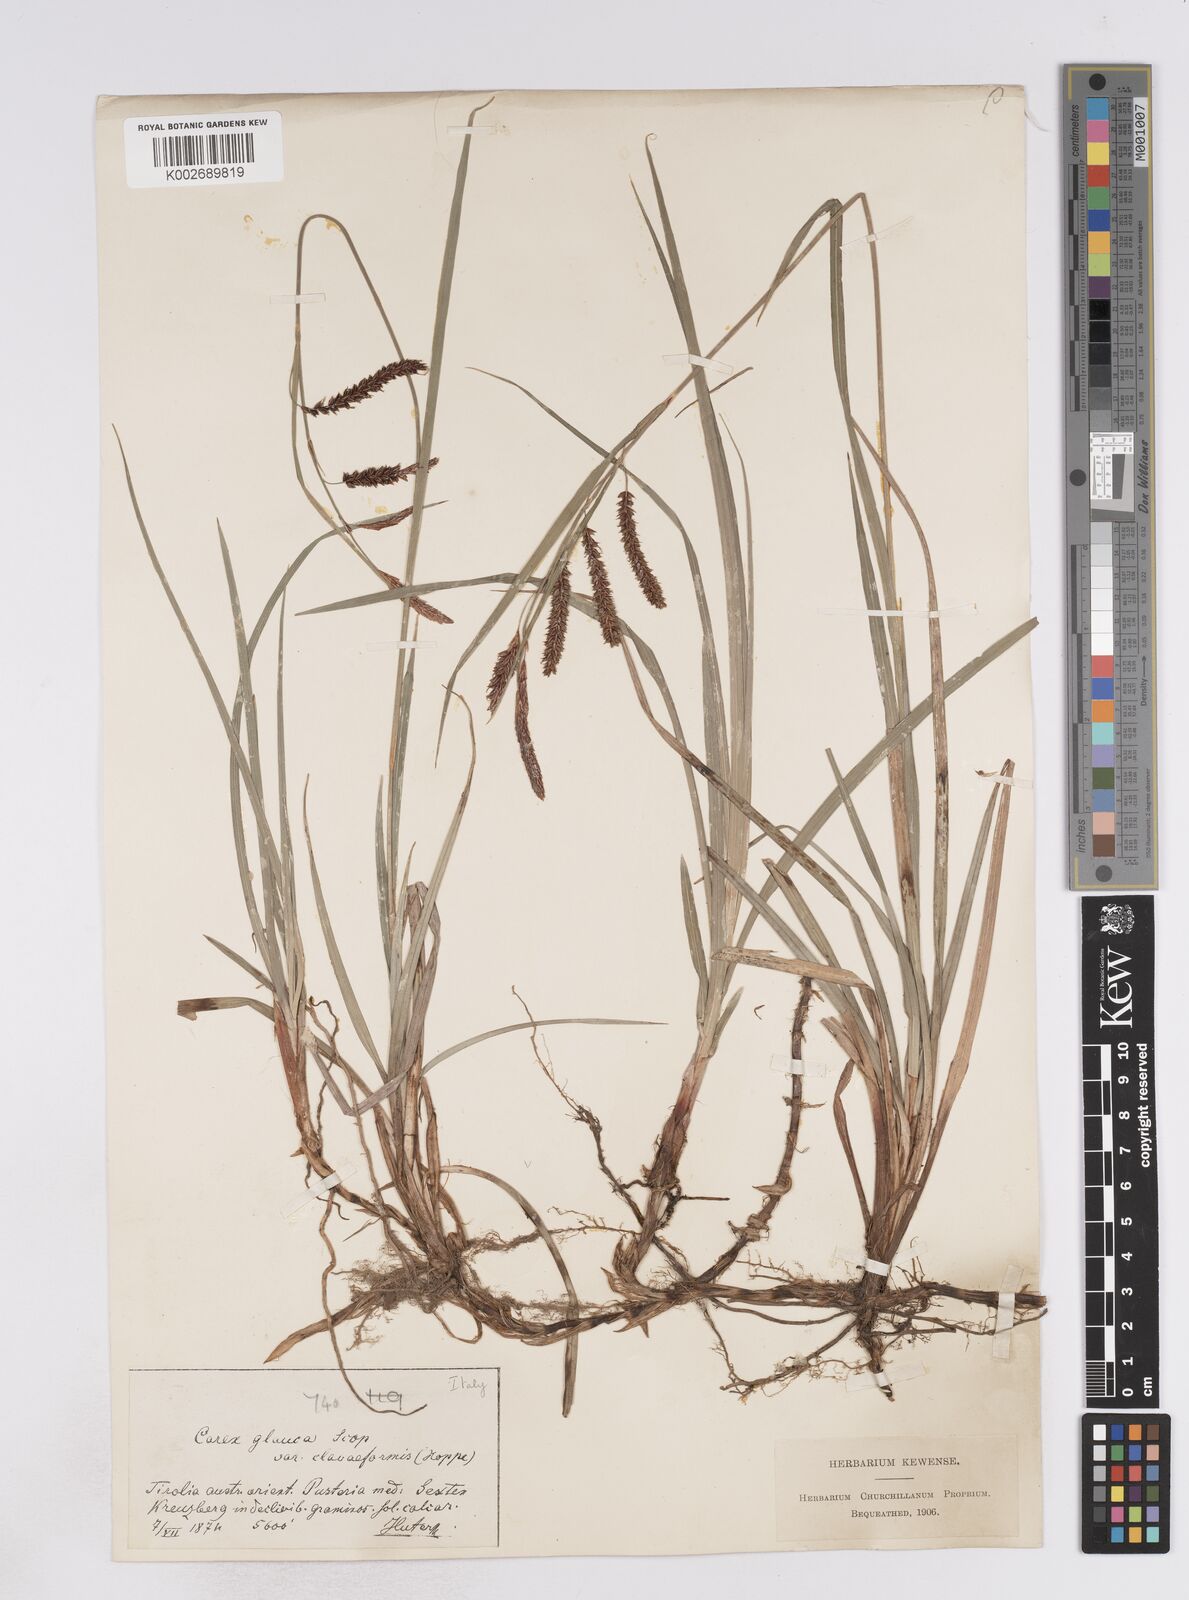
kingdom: Plantae
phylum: Tracheophyta
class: Liliopsida
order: Poales
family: Cyperaceae
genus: Carex
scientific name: Carex flacca
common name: Glaucous sedge
